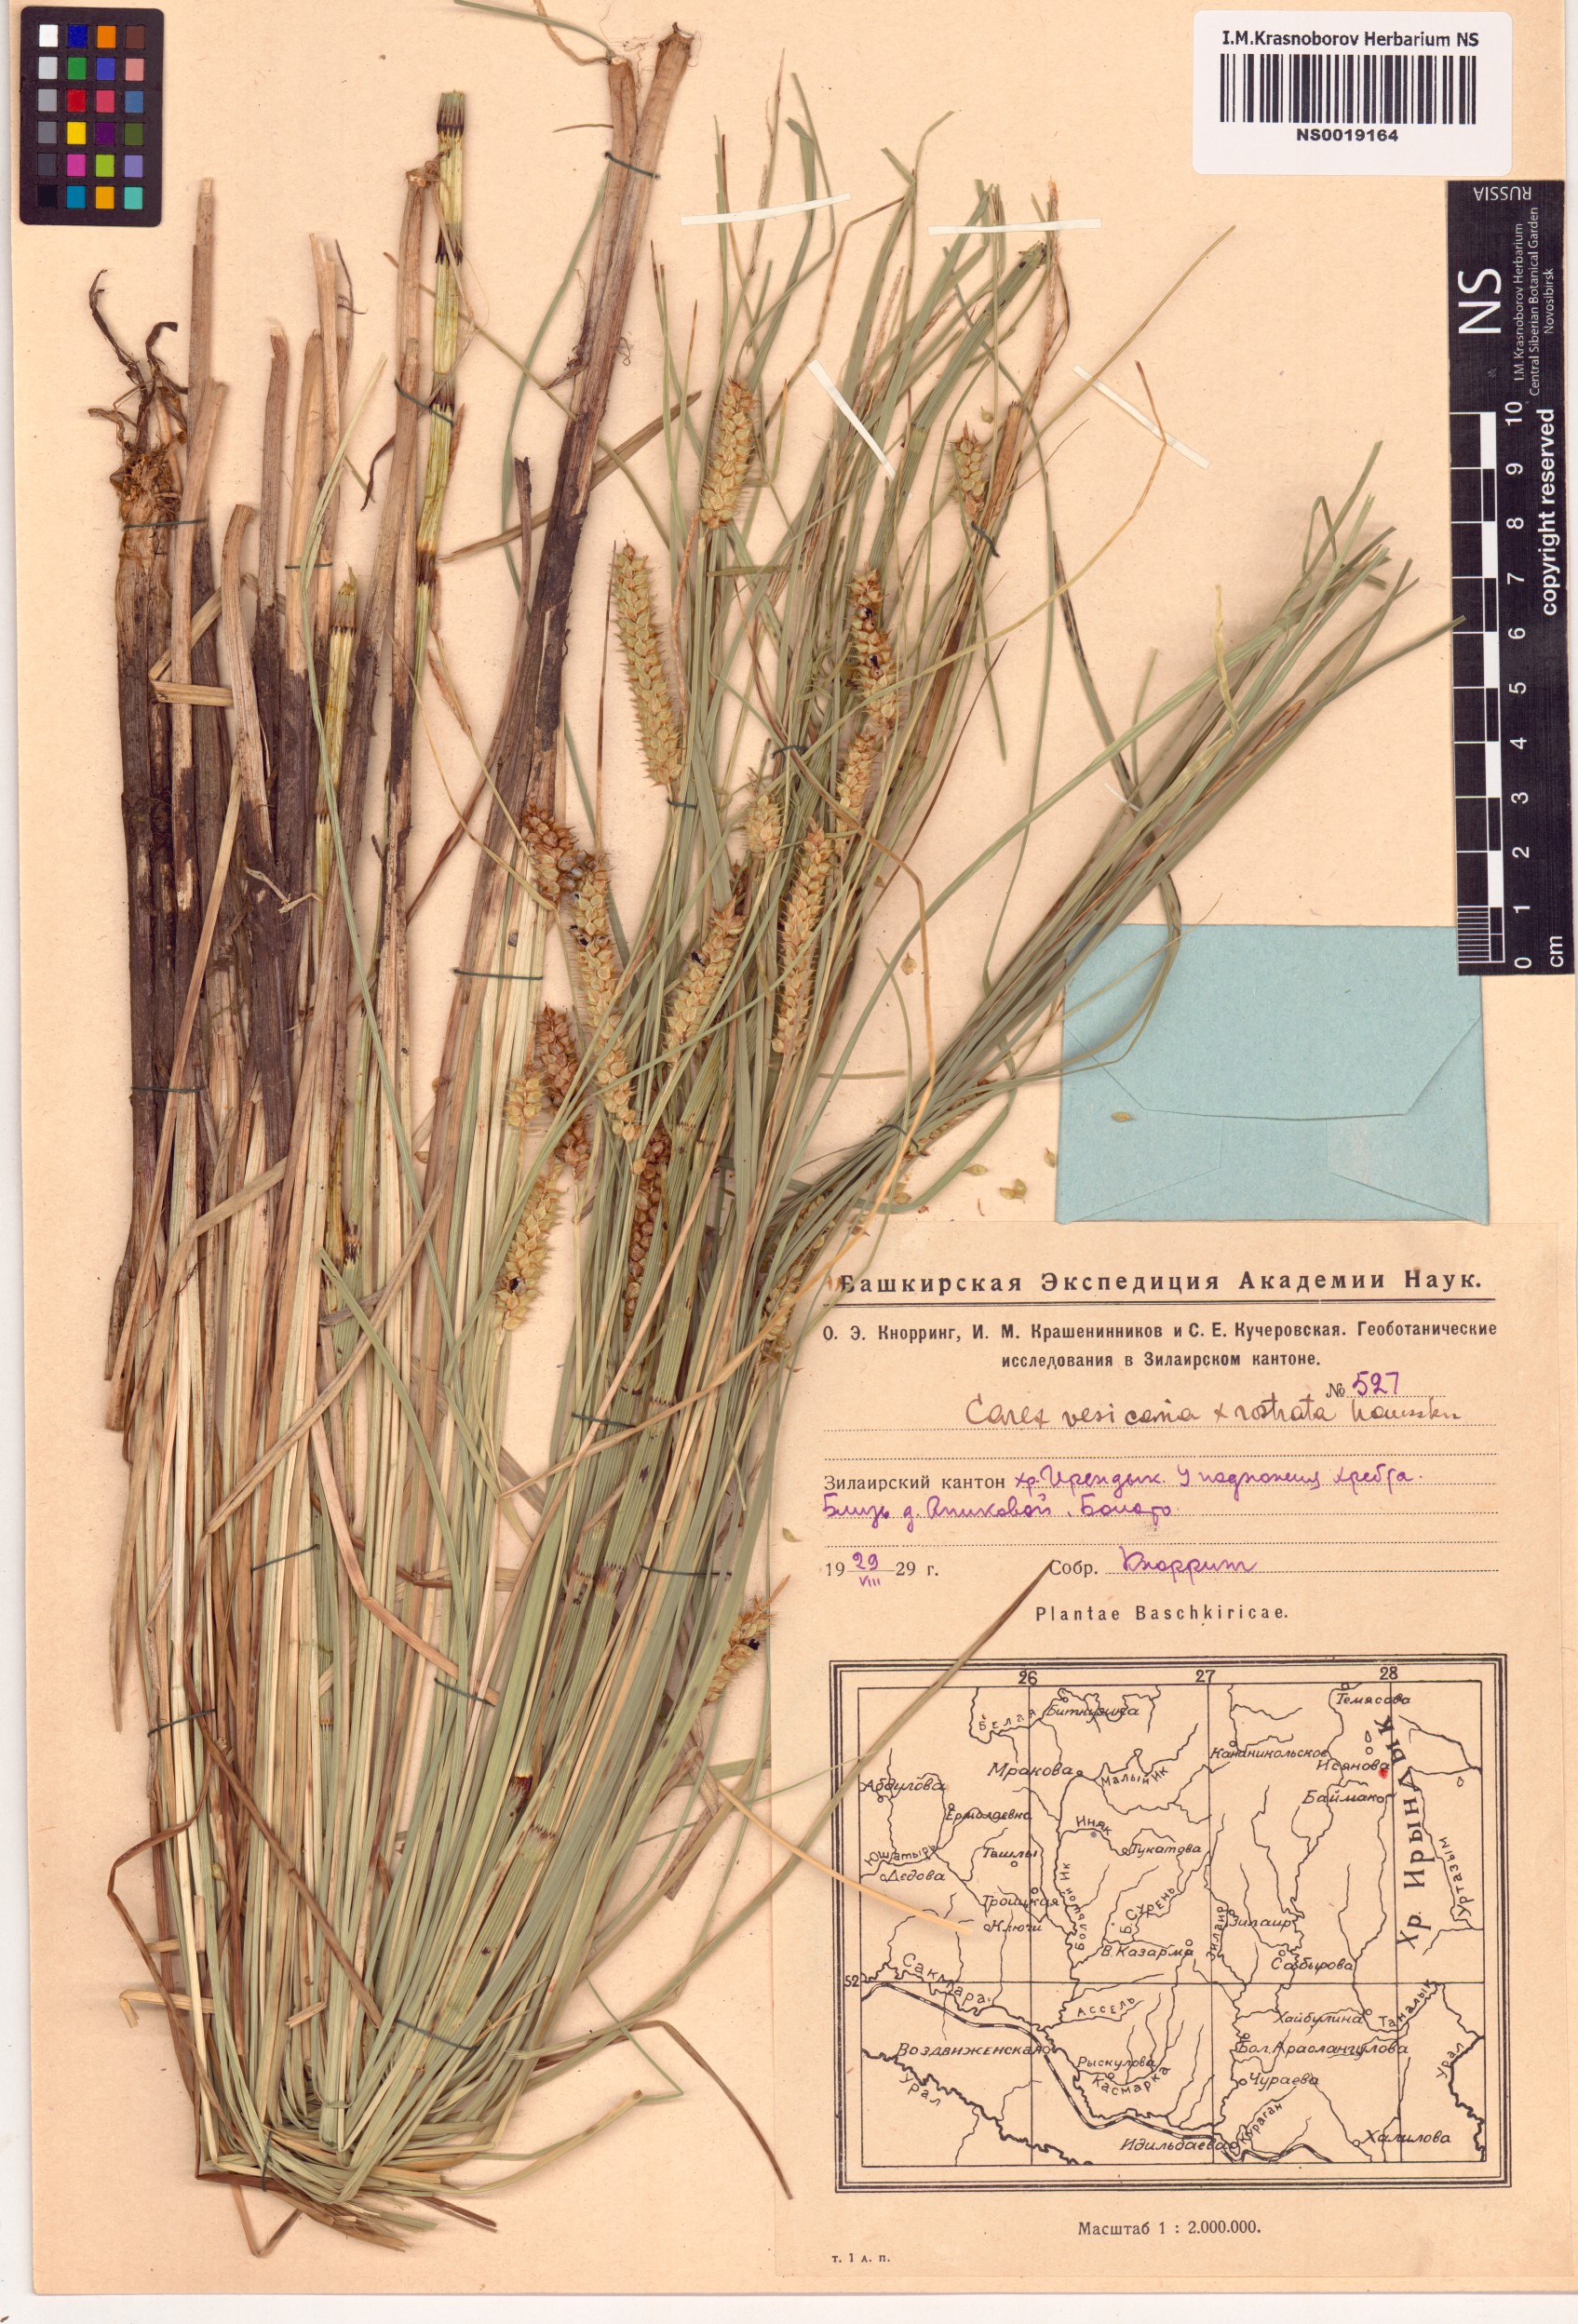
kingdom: Plantae
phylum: Tracheophyta
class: Liliopsida
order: Poales
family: Cyperaceae
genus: Carex
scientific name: Carex vesicaria
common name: Bladder-sedge
